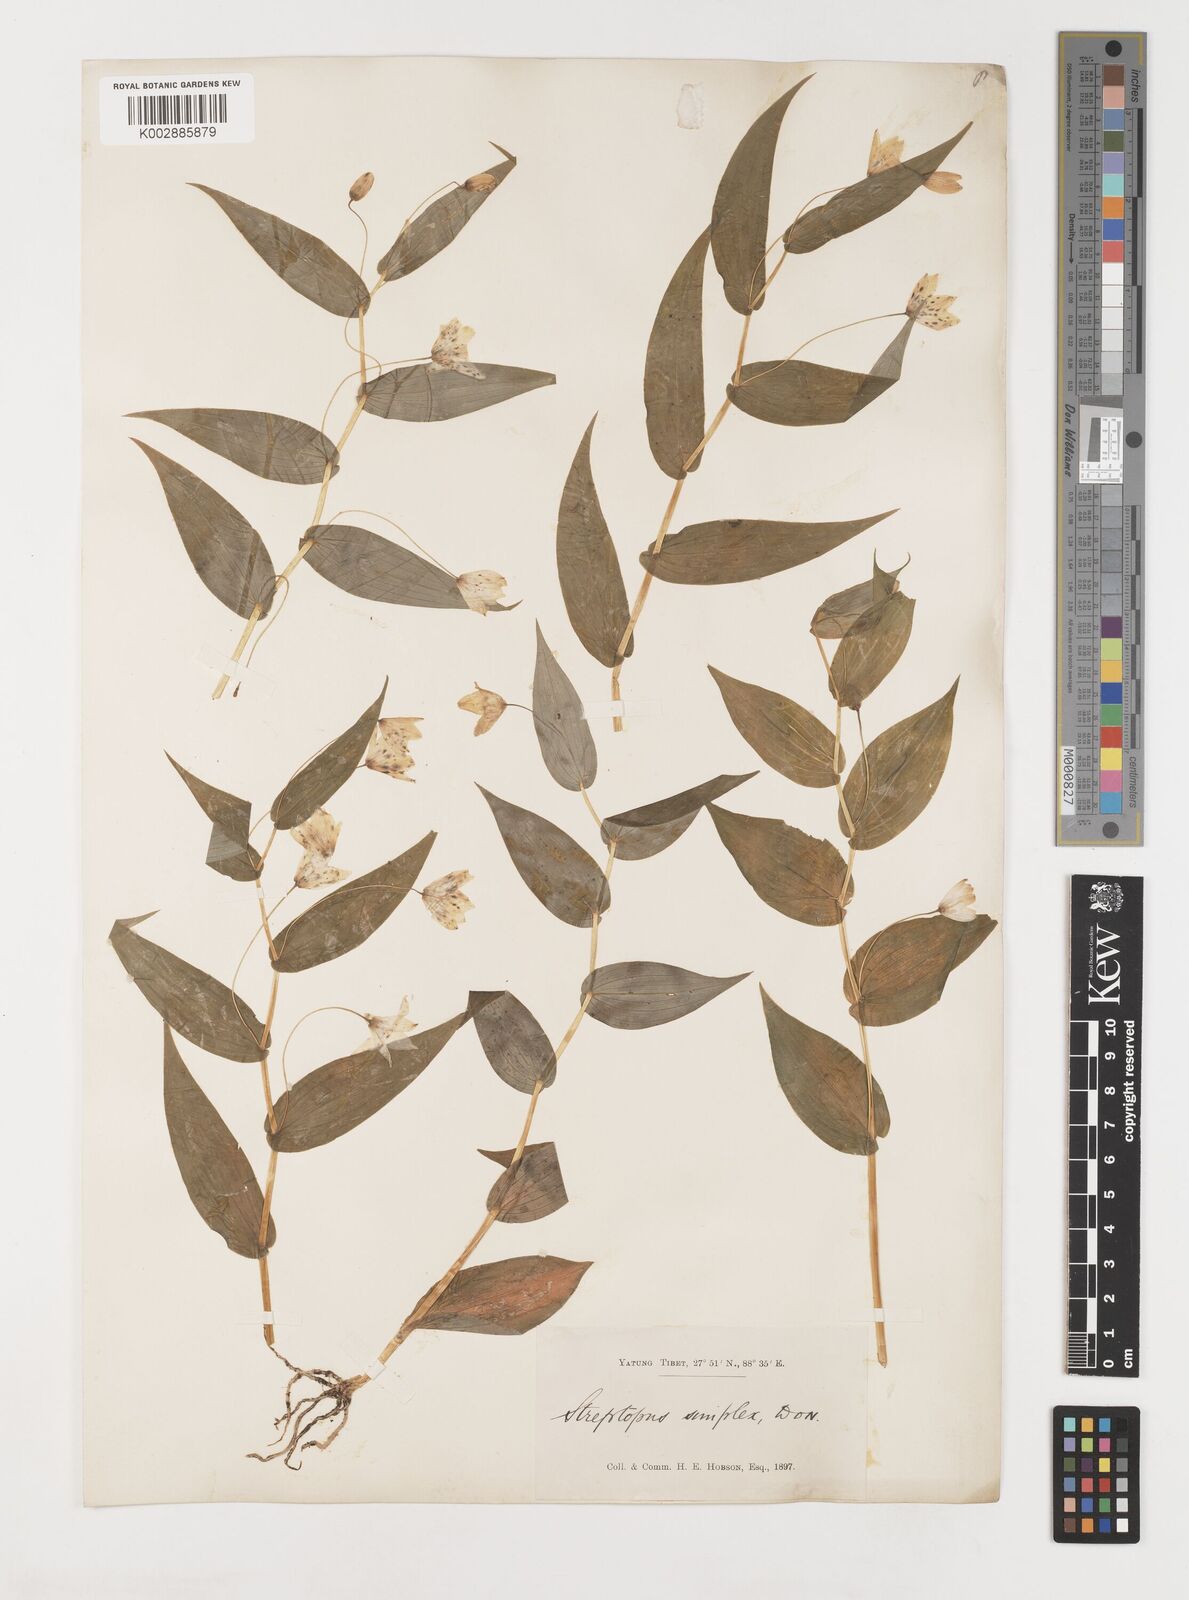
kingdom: Plantae
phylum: Tracheophyta
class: Liliopsida
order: Liliales
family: Liliaceae
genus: Streptopus
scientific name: Streptopus simplex
